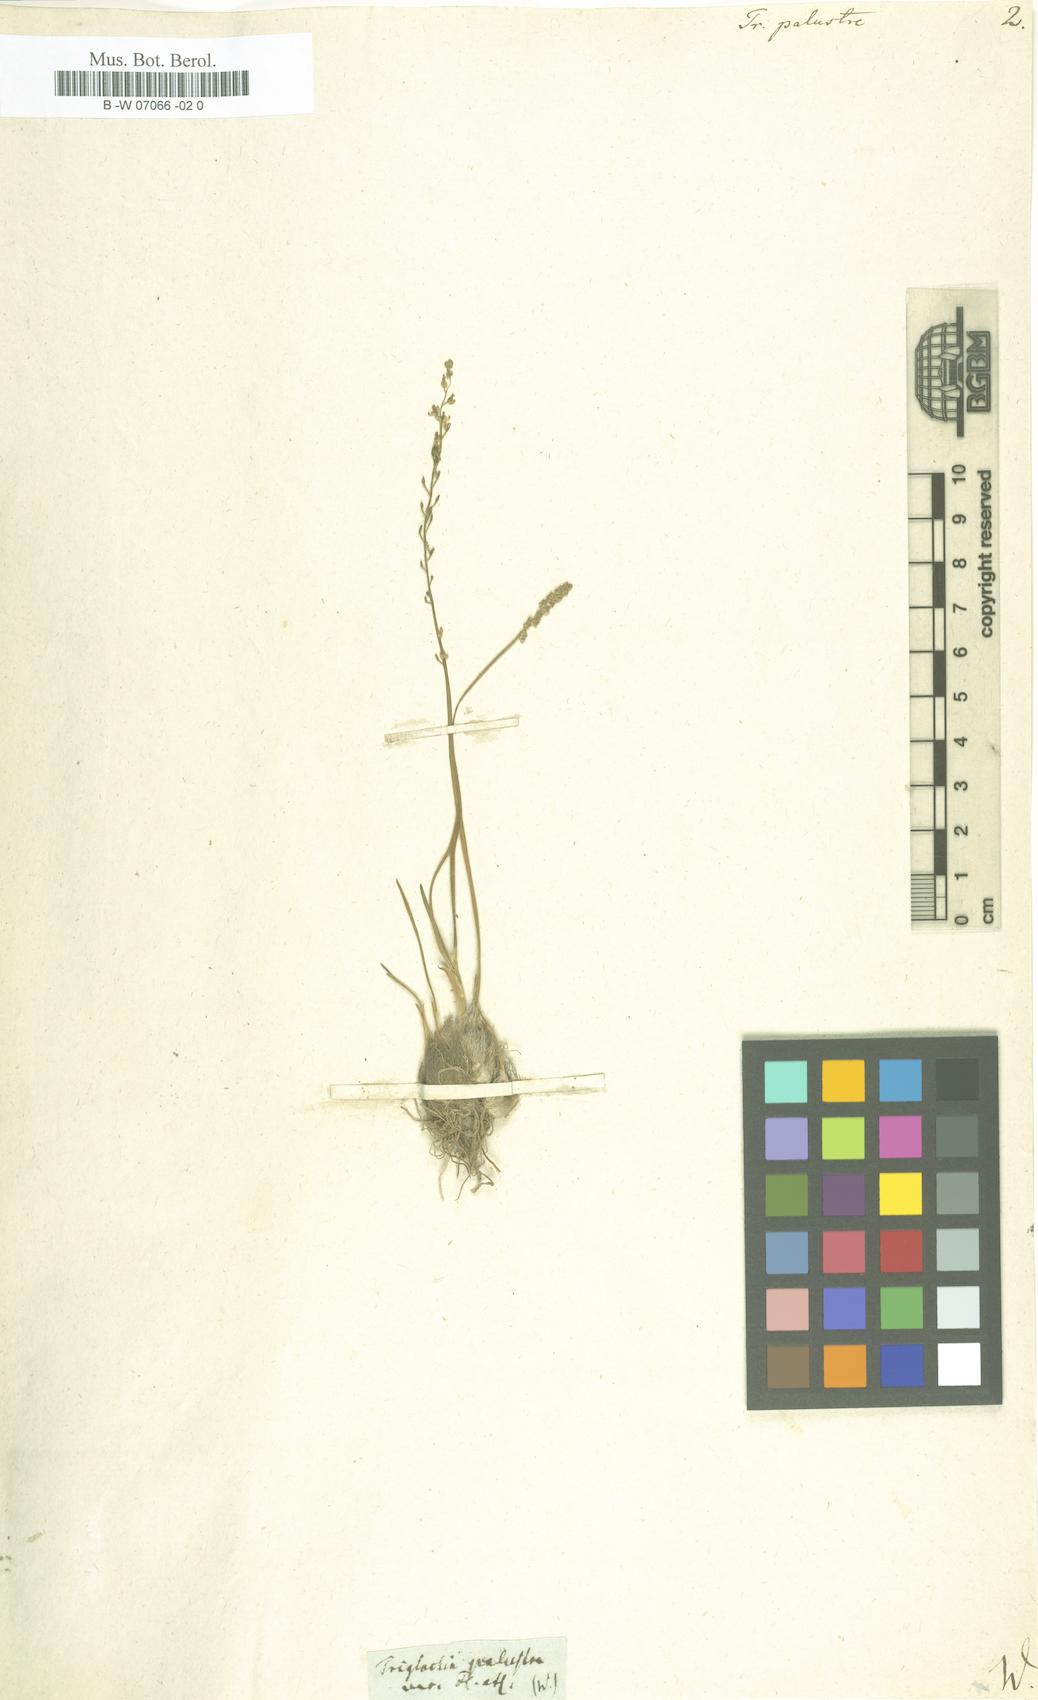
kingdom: Plantae
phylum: Tracheophyta
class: Liliopsida
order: Alismatales
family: Juncaginaceae
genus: Triglochin
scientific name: Triglochin palustris
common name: Marsh arrowgrass
